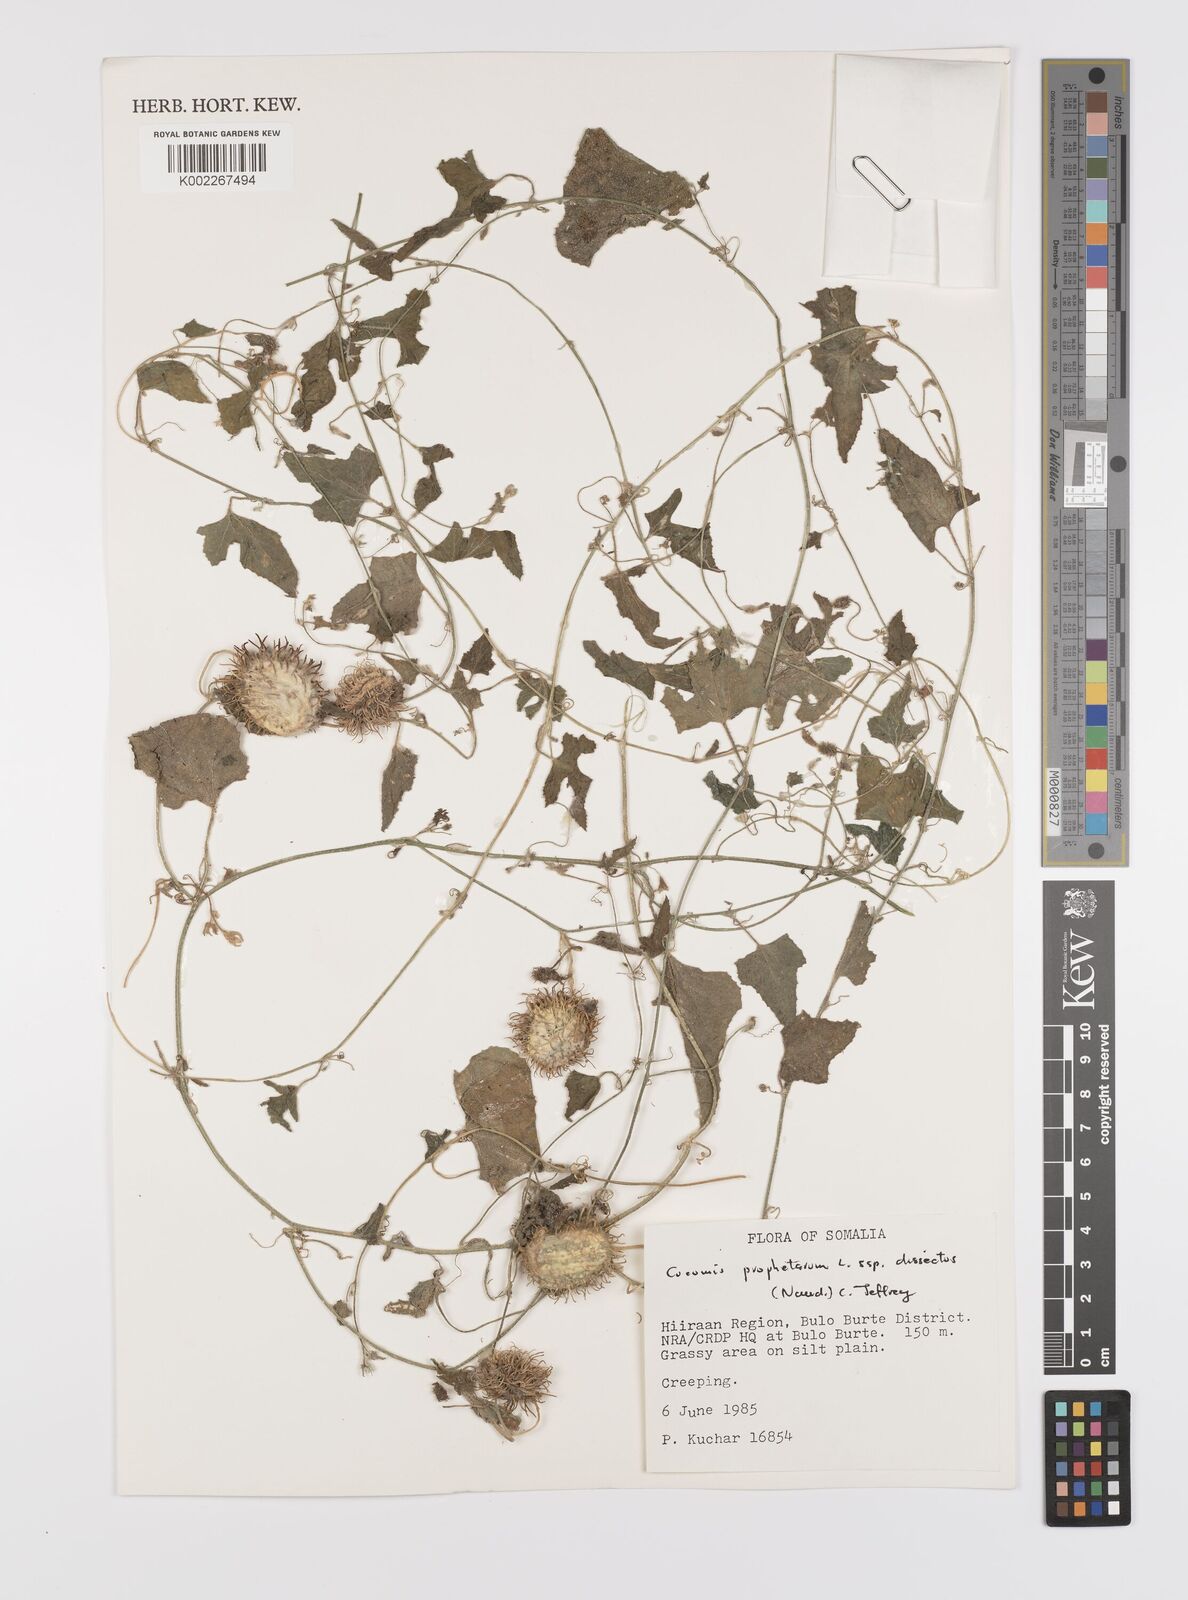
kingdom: Plantae
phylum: Tracheophyta
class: Magnoliopsida
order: Cucurbitales
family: Cucurbitaceae
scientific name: Cucurbitaceae
